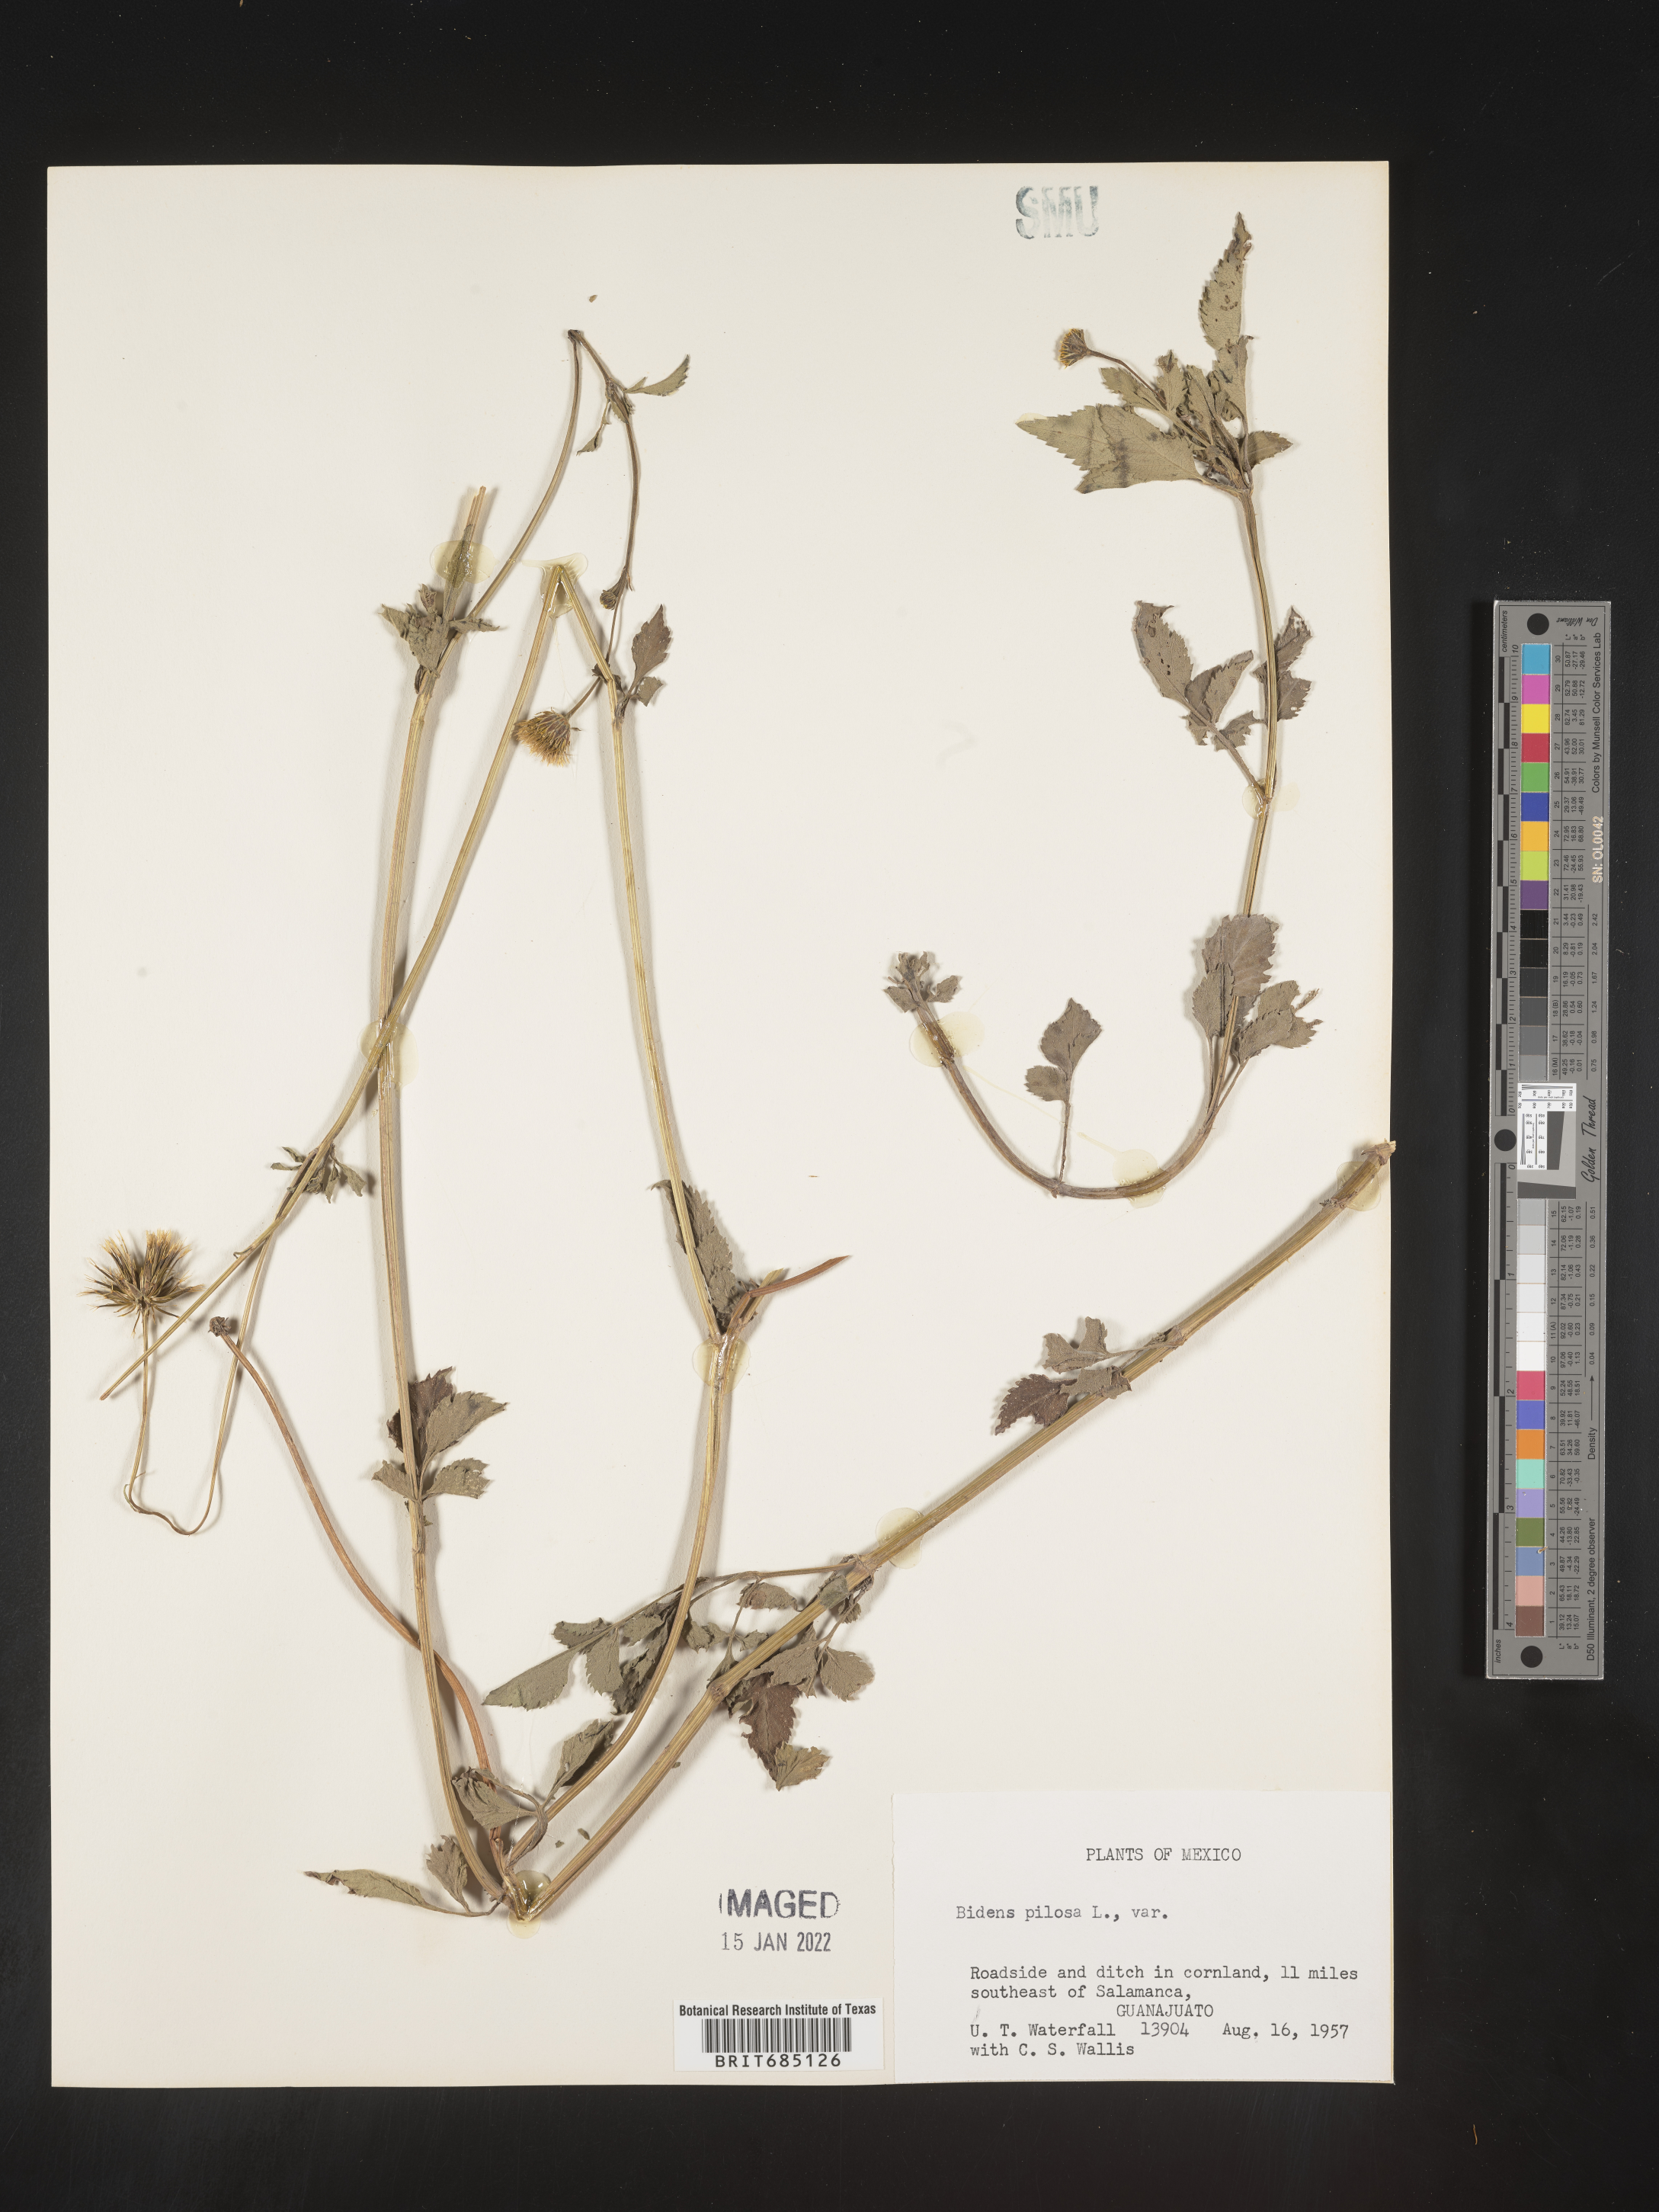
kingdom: Plantae
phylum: Tracheophyta
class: Magnoliopsida
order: Asterales
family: Asteraceae
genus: Bidens
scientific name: Bidens
